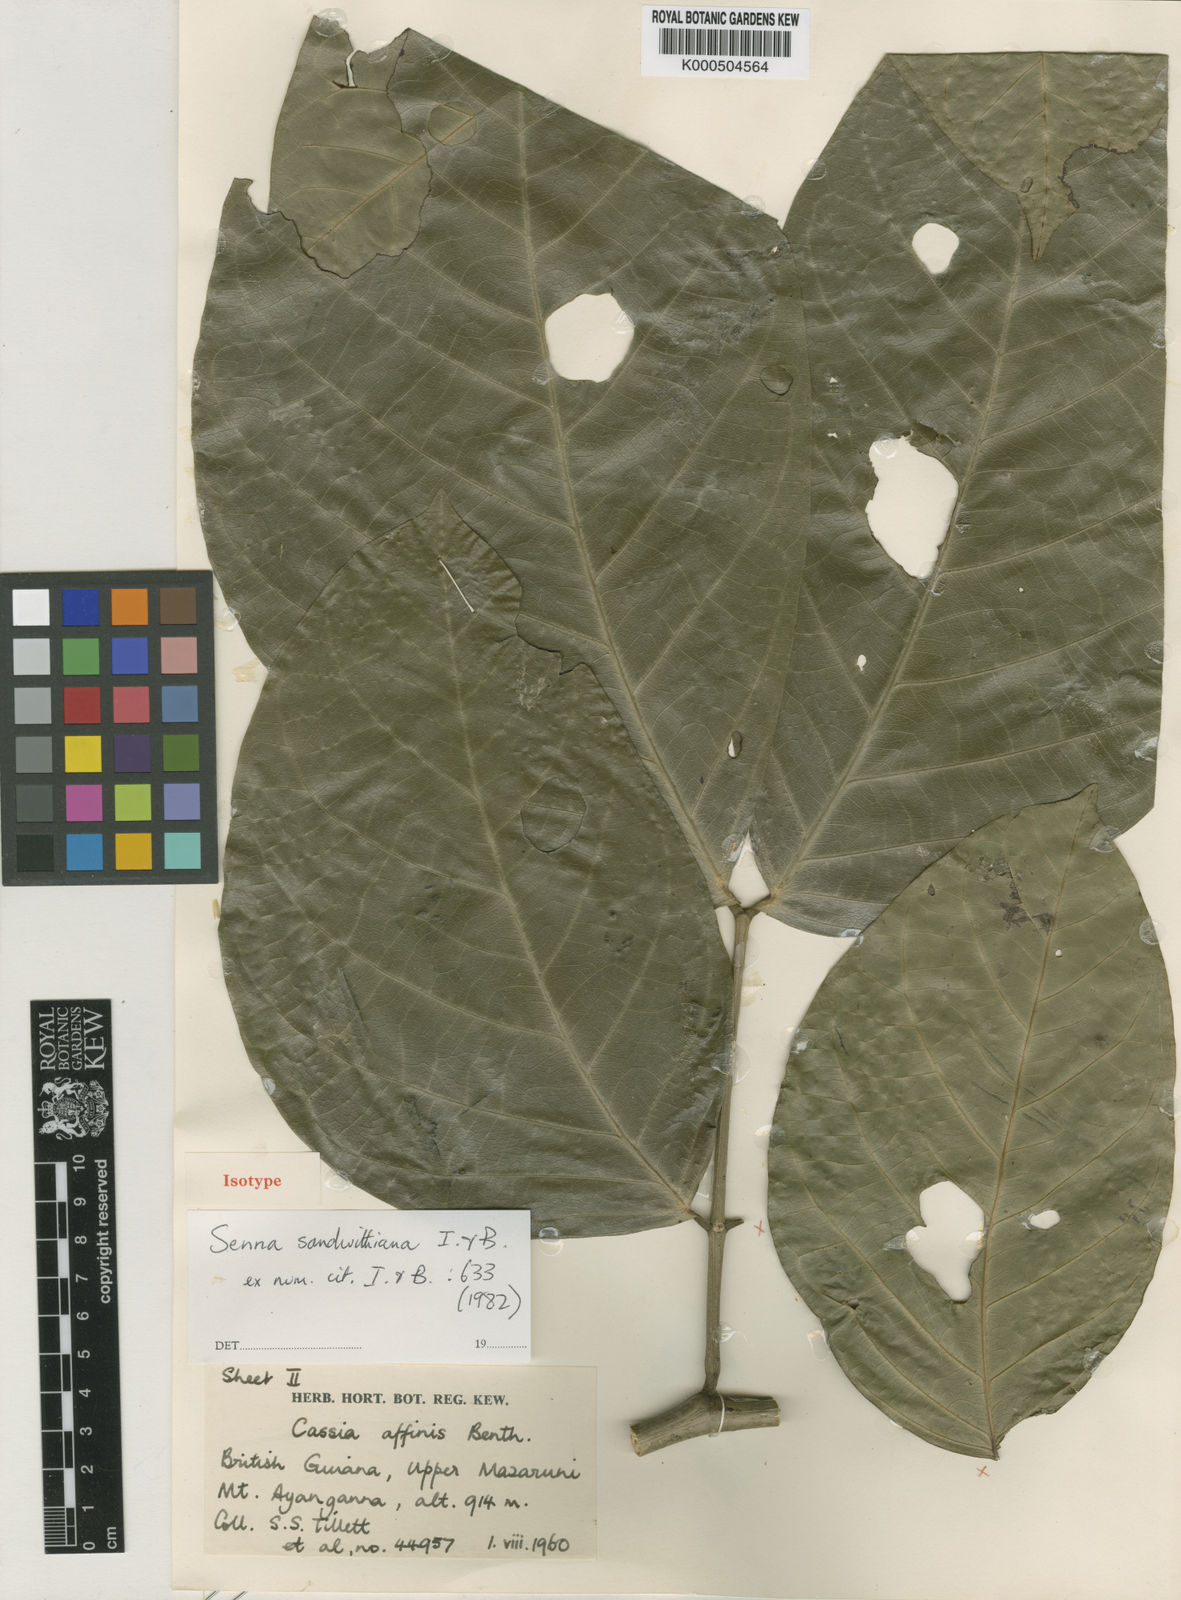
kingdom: Plantae
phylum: Tracheophyta
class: Magnoliopsida
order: Fabales
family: Fabaceae
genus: Senna
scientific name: Senna sandwithiana
